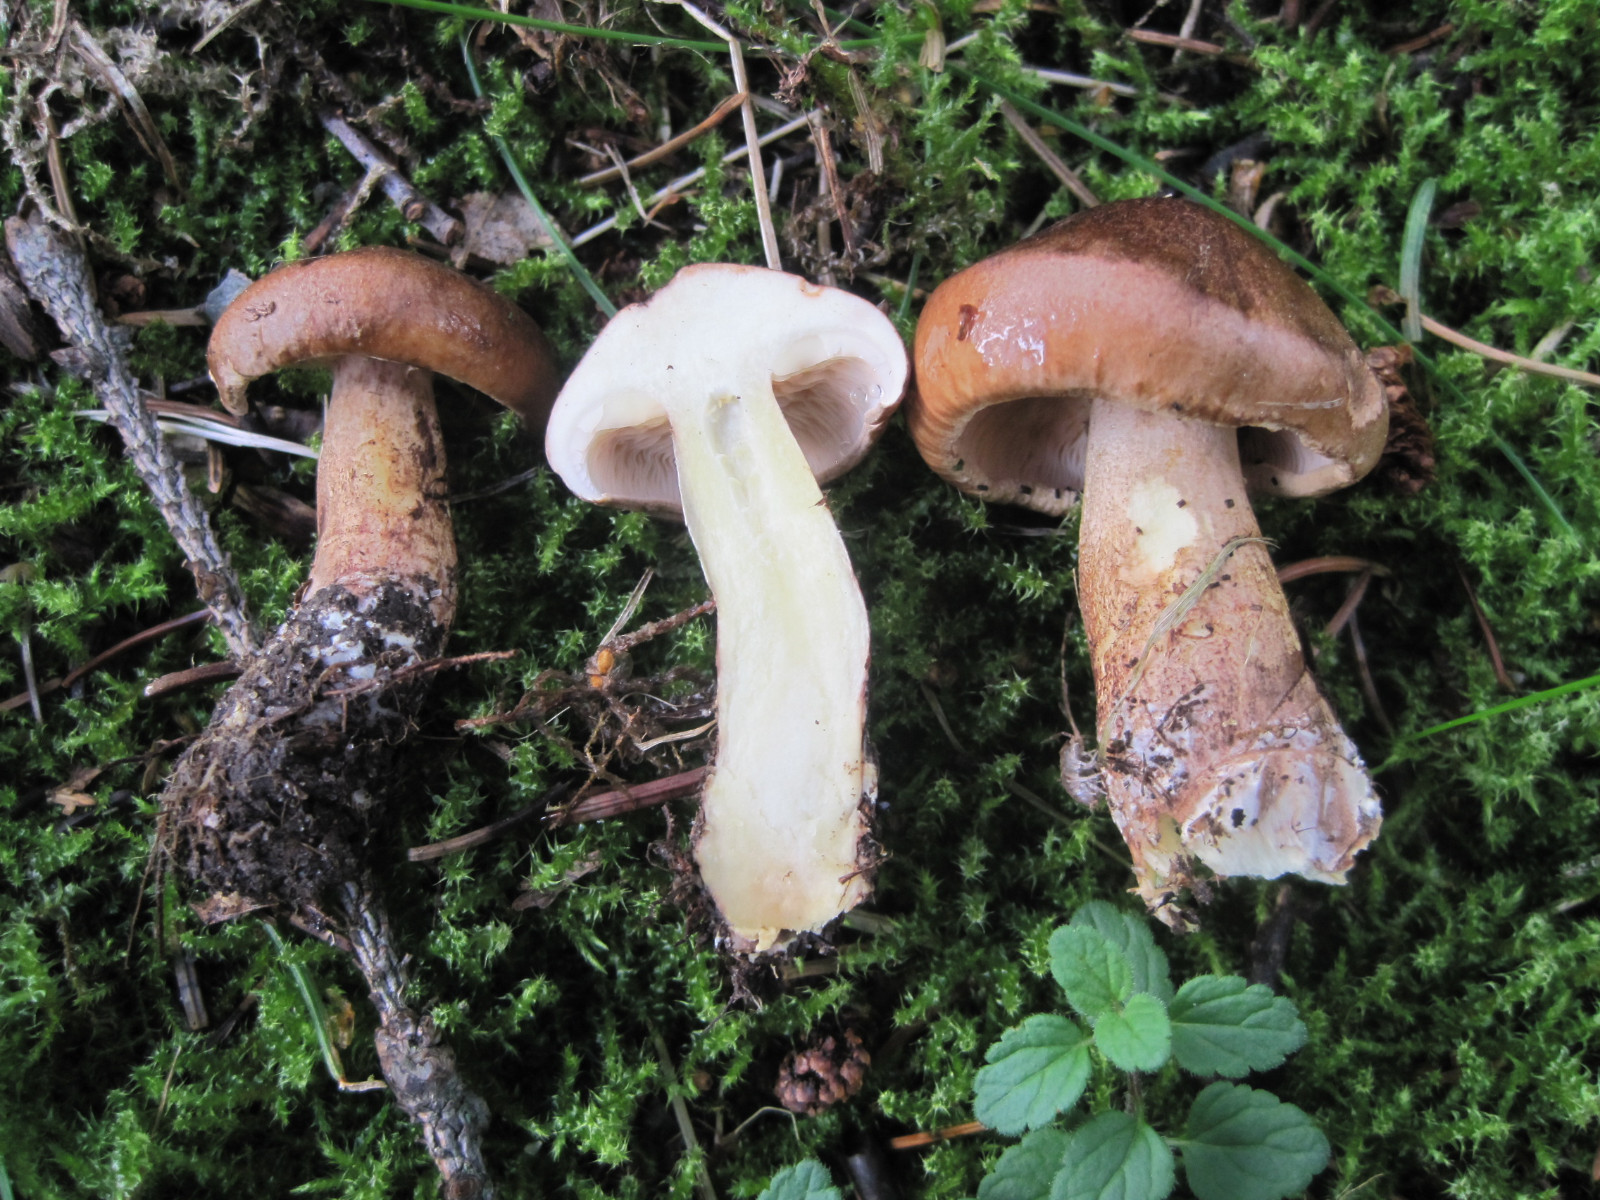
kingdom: Fungi
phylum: Basidiomycota
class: Agaricomycetes
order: Agaricales
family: Tricholomataceae
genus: Tricholoma
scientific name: Tricholoma fulvum
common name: birke-ridderhat
